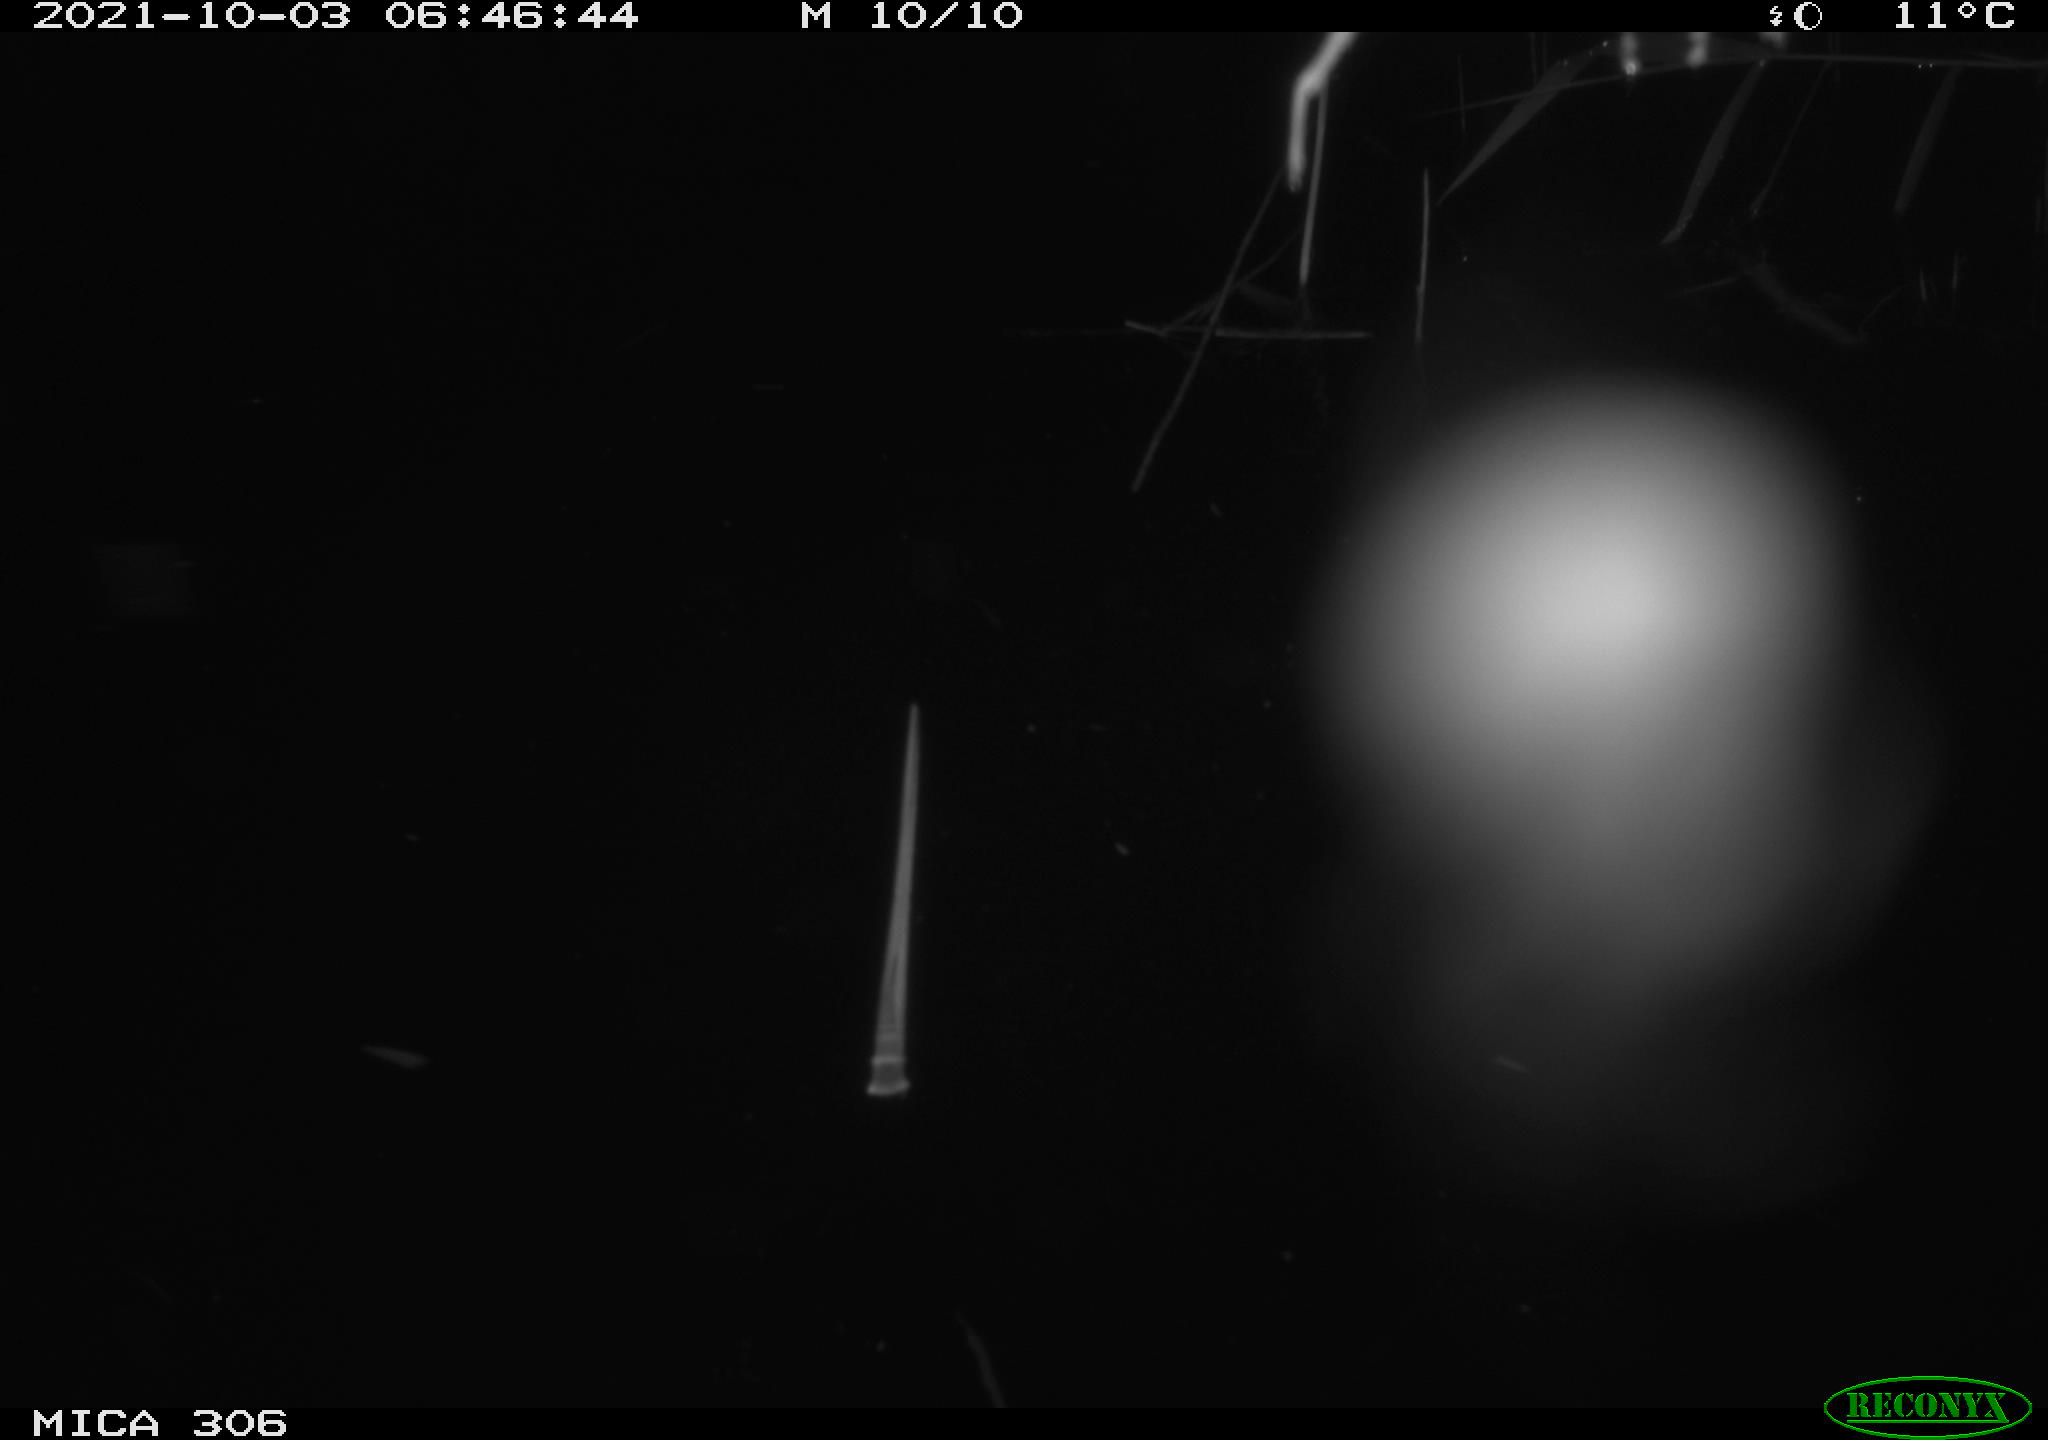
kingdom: Animalia
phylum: Chordata
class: Mammalia
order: Rodentia
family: Cricetidae
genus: Ondatra
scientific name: Ondatra zibethicus
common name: Muskrat
